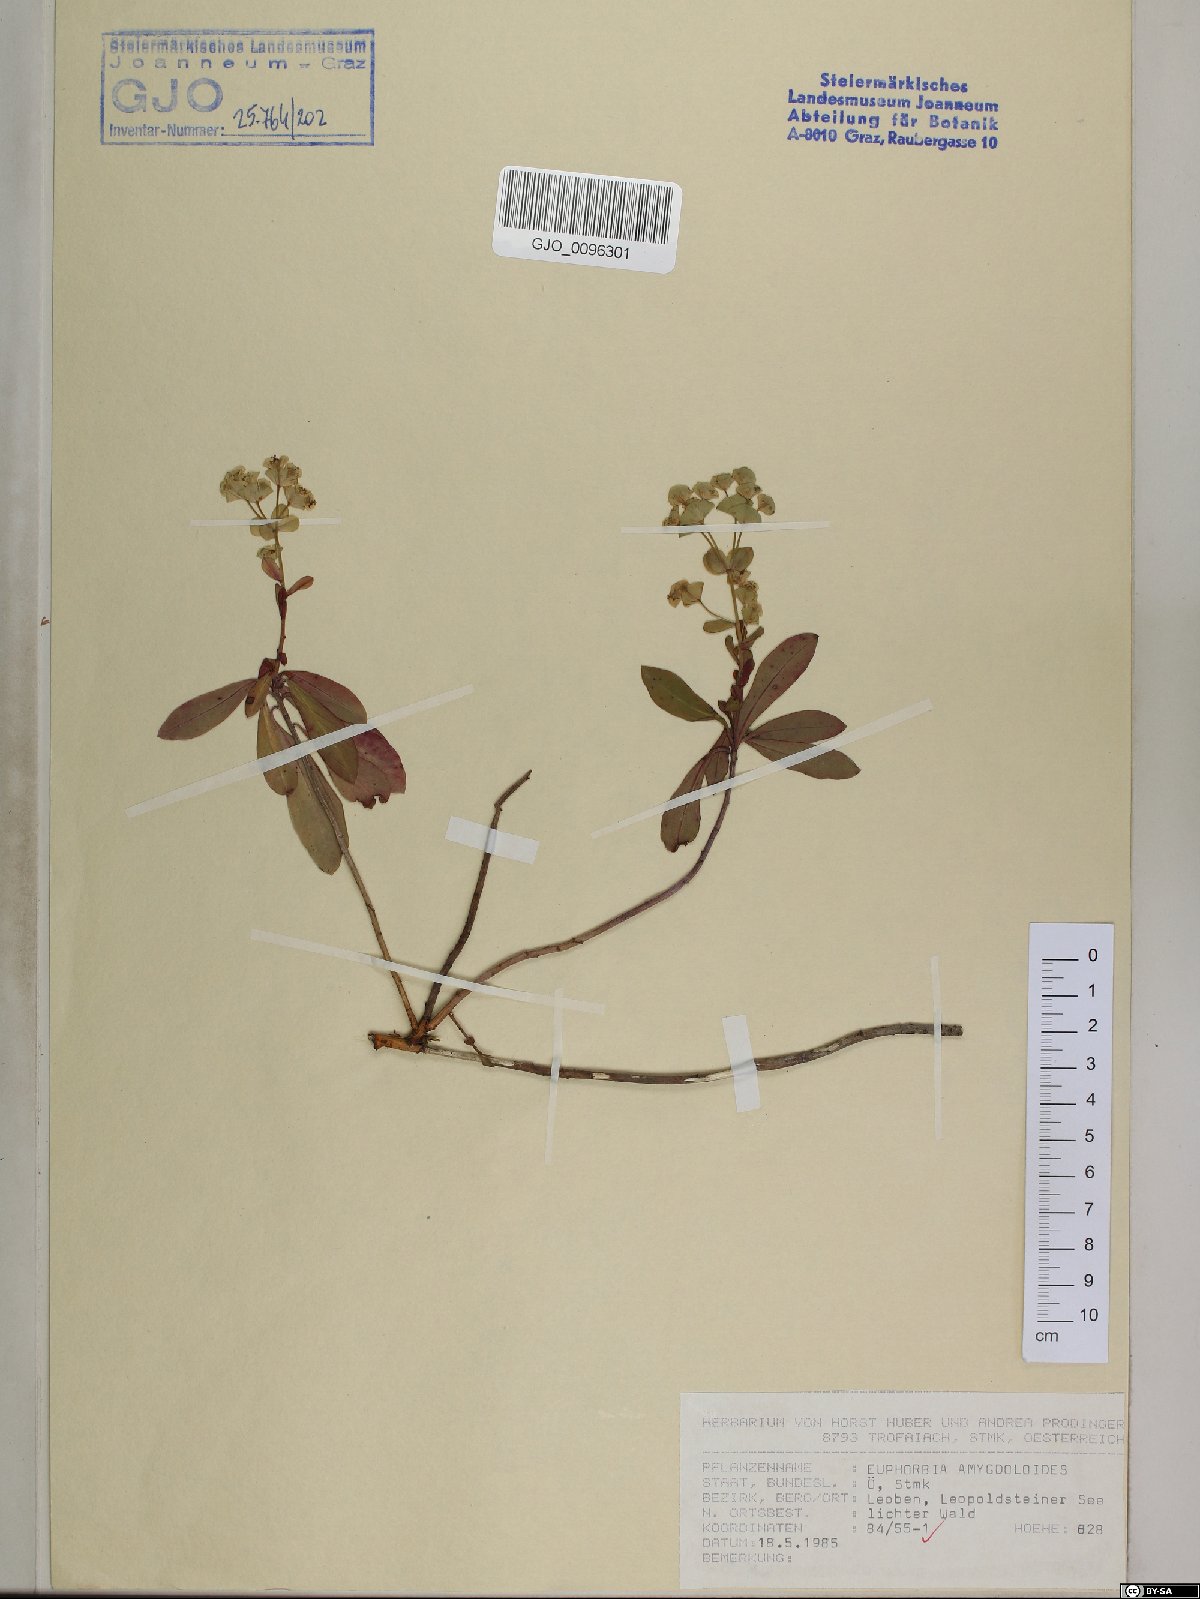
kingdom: Plantae
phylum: Tracheophyta
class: Magnoliopsida
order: Malpighiales
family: Euphorbiaceae
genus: Euphorbia
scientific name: Euphorbia amygdaloides
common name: Wood spurge
